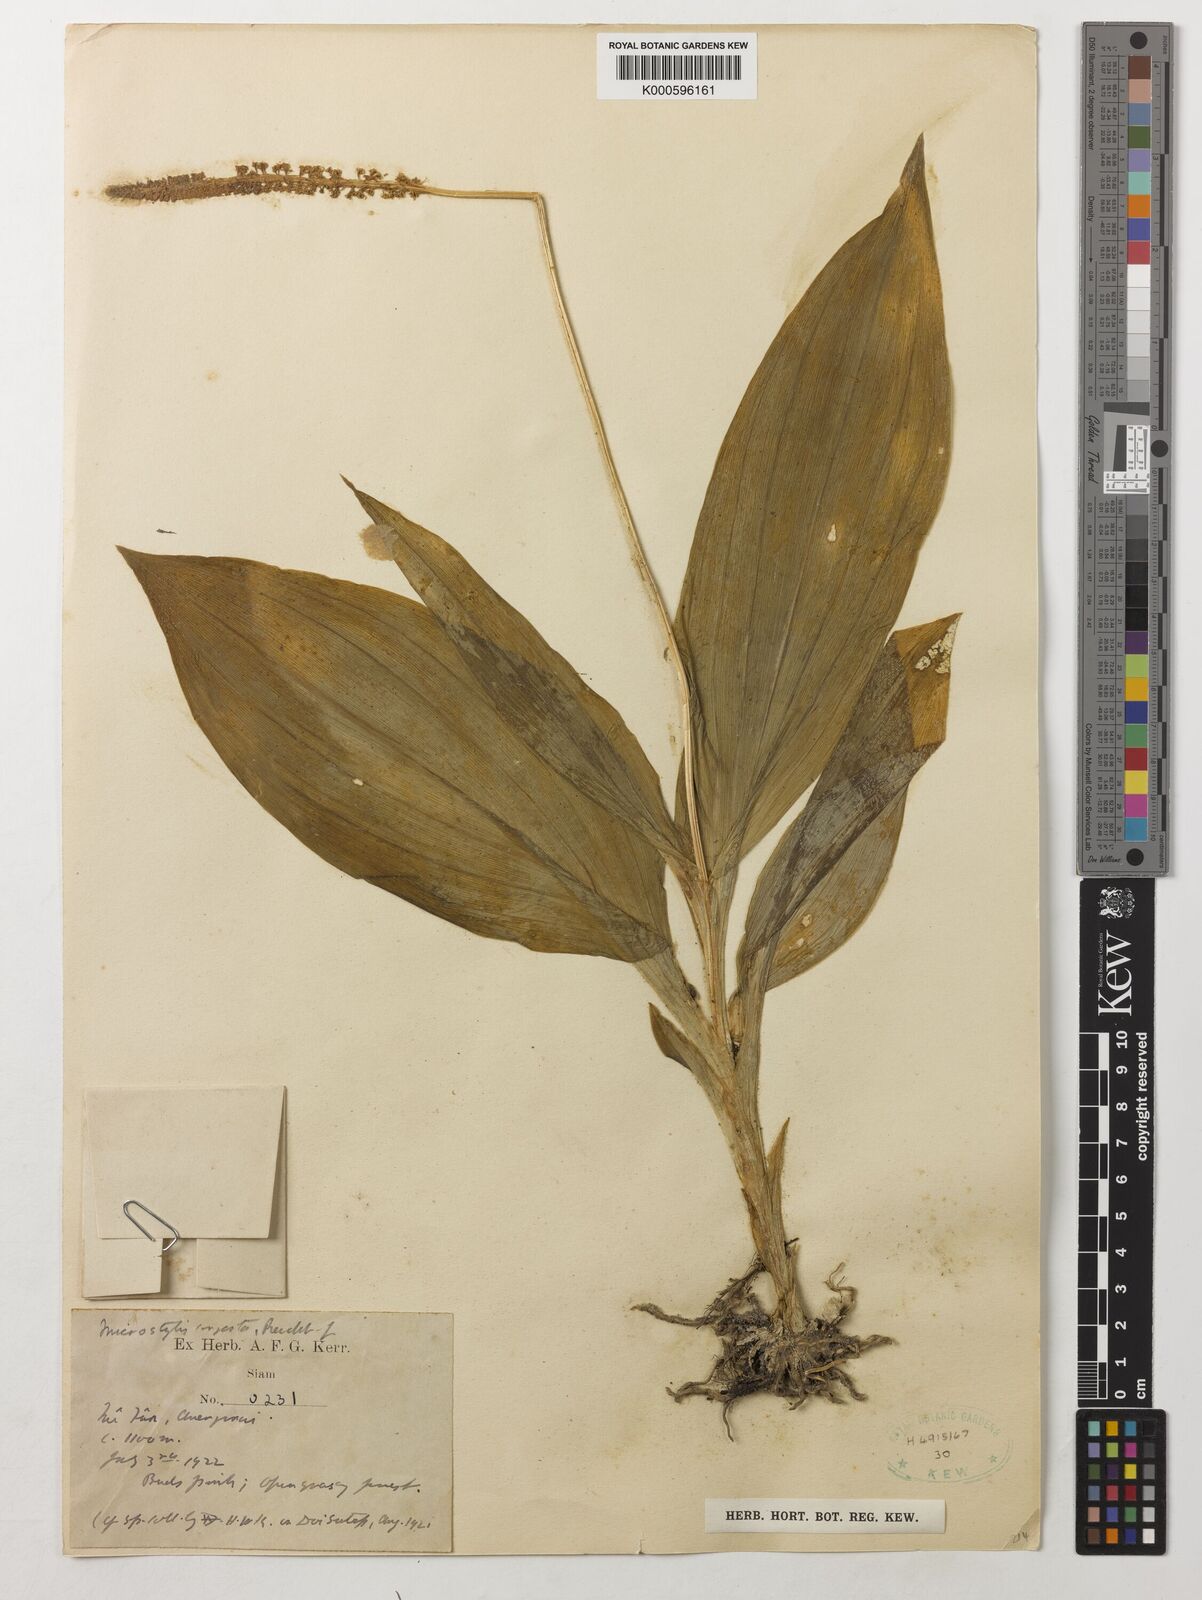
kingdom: Plantae
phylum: Tracheophyta
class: Liliopsida
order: Asparagales
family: Orchidaceae
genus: Dienia
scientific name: Dienia ophrydis
